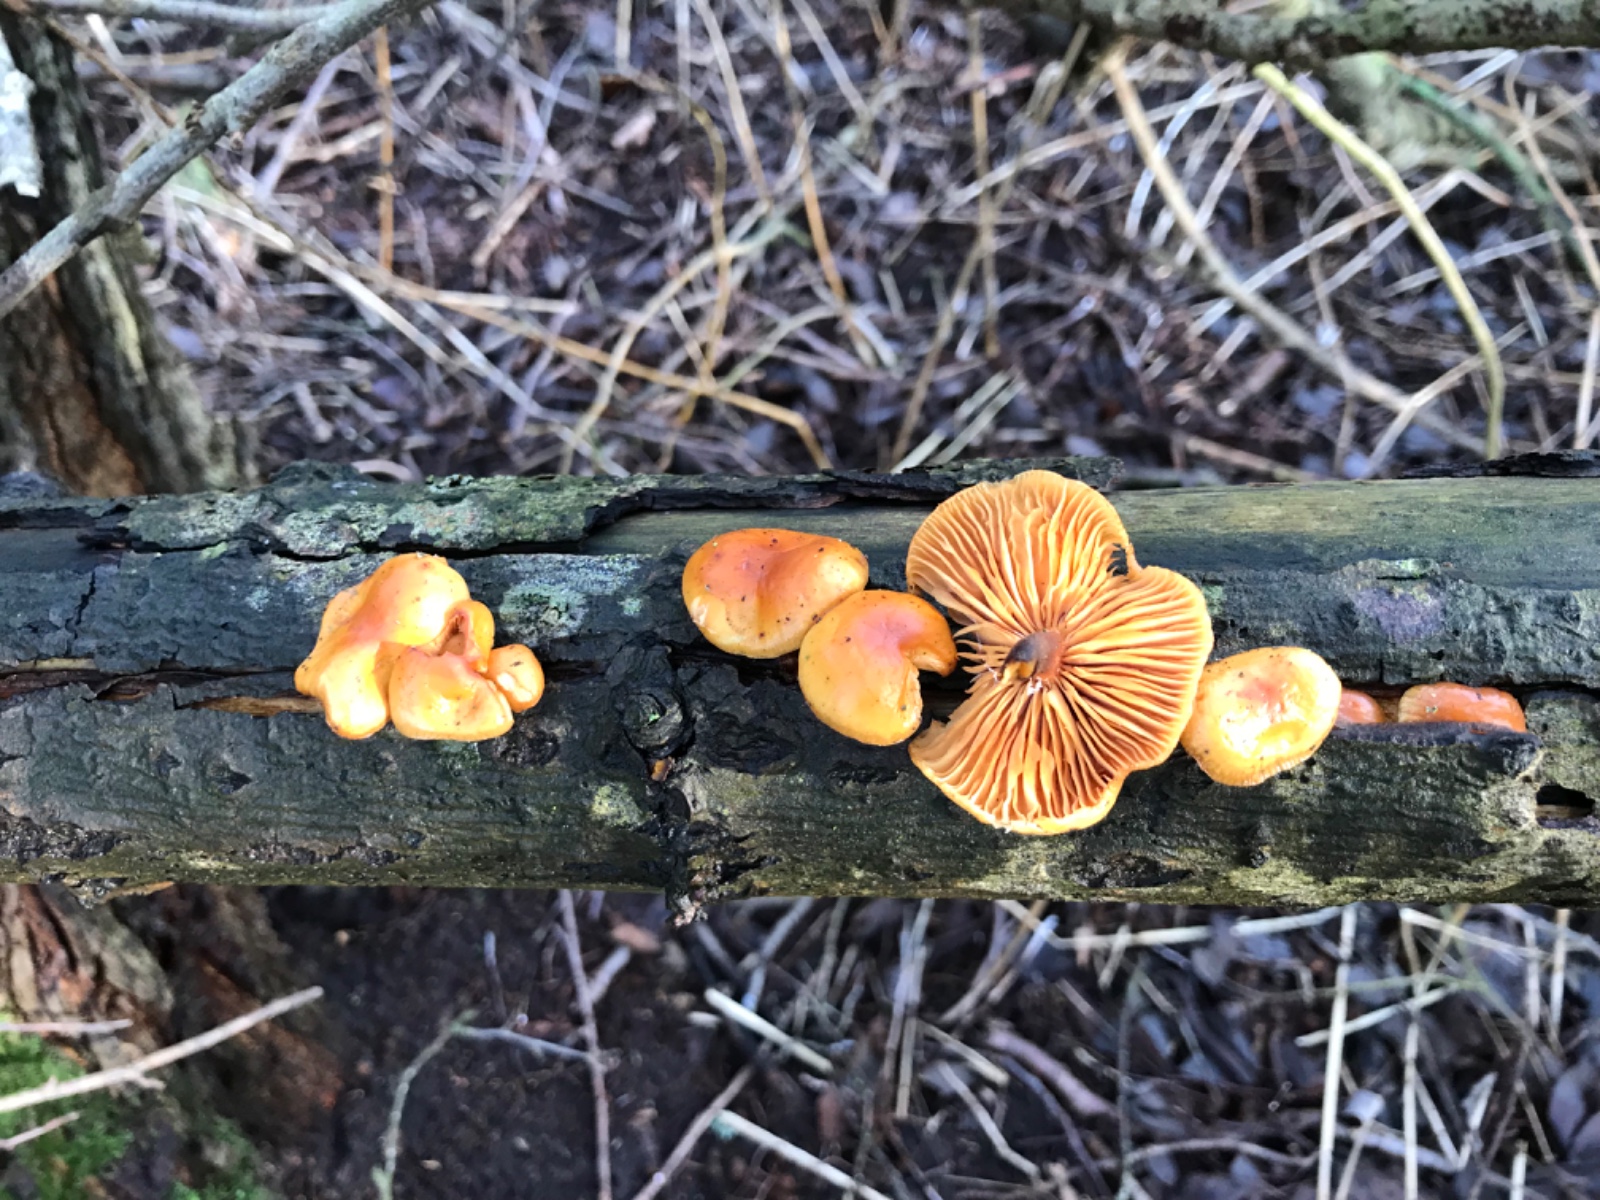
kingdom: Fungi
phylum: Basidiomycota
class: Agaricomycetes
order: Agaricales
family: Physalacriaceae
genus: Flammulina
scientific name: Flammulina elastica
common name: pile-fløjlsfod
